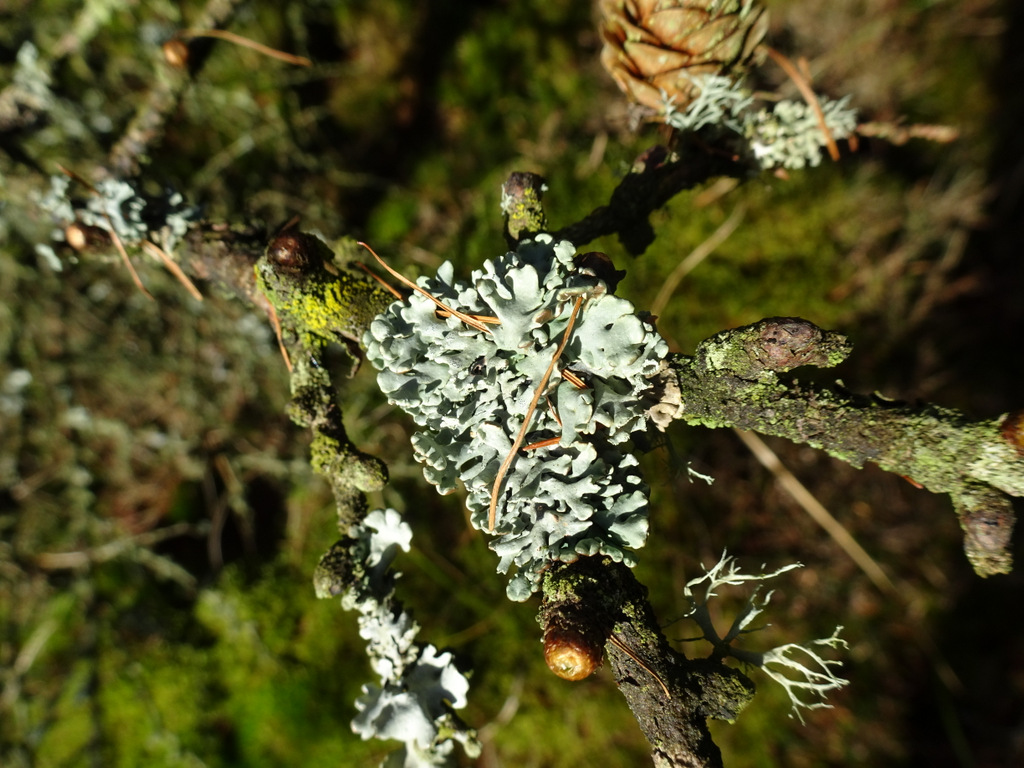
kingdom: Fungi
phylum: Ascomycota
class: Lecanoromycetes
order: Lecanorales
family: Parmeliaceae
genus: Hypogymnia
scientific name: Hypogymnia physodes
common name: almindelig kvistlav
